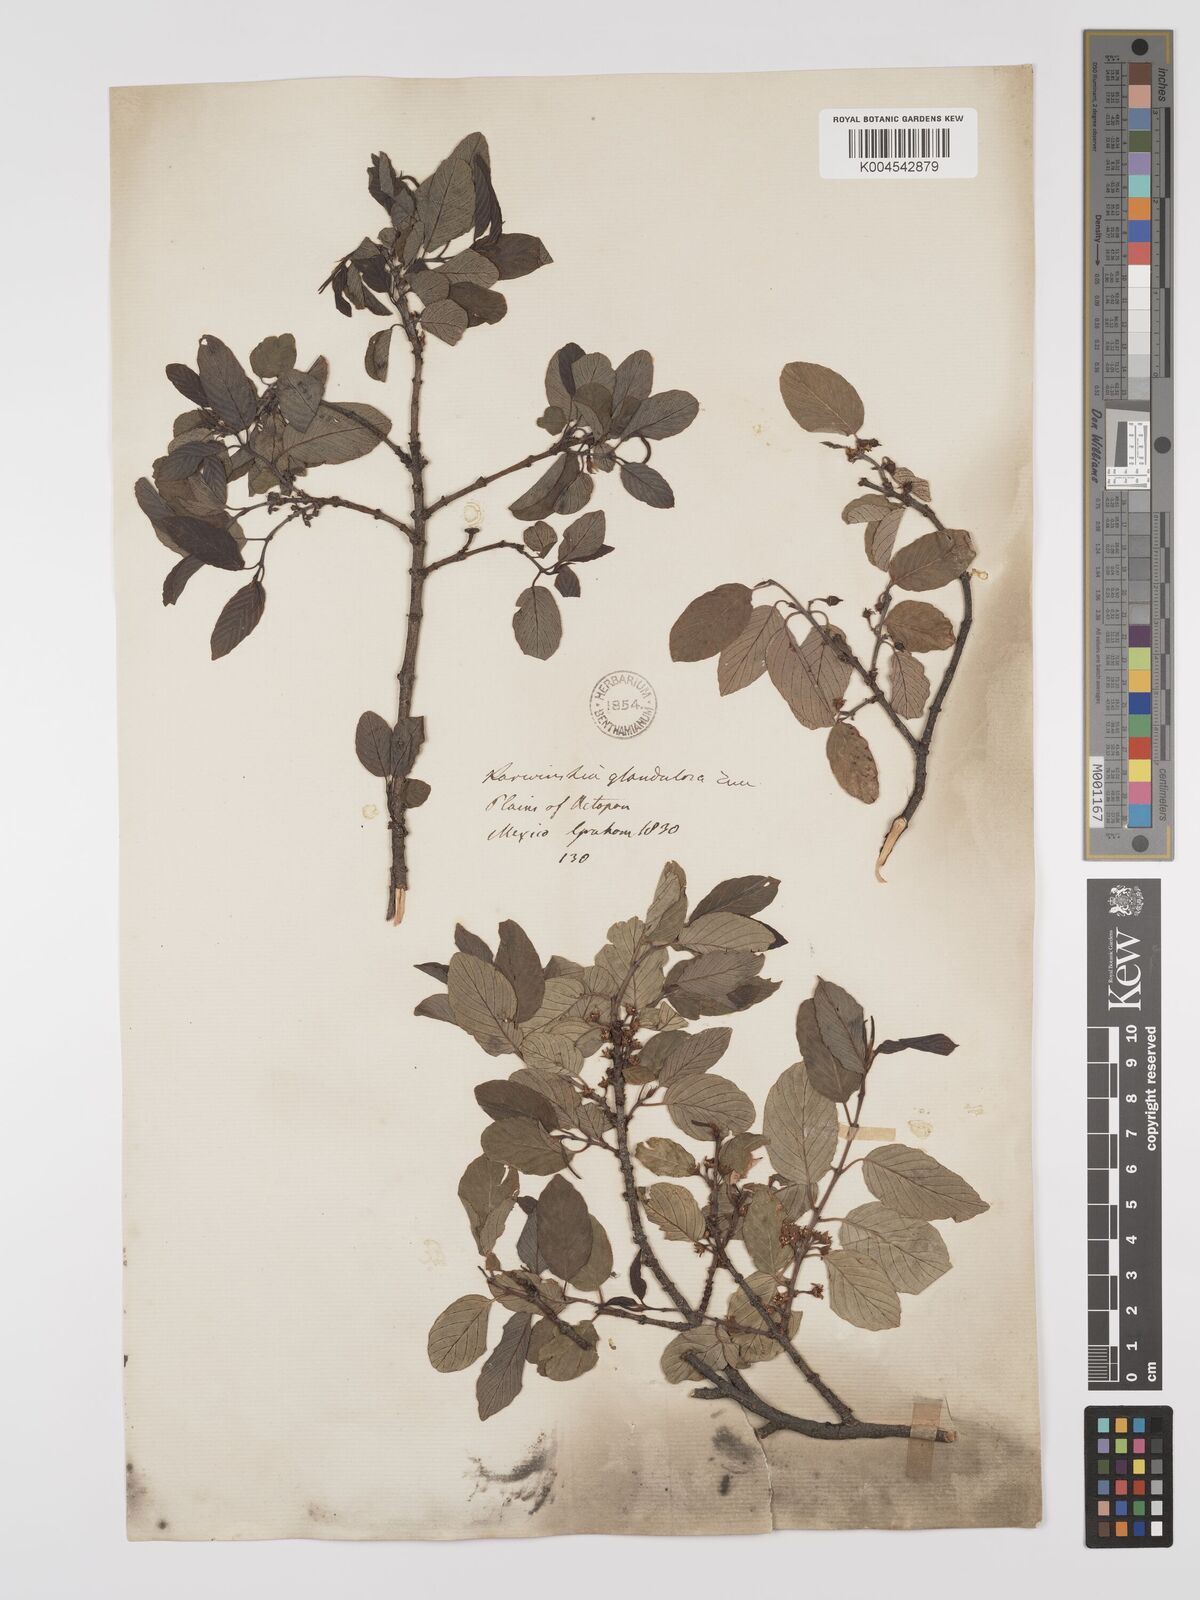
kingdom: Plantae
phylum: Tracheophyta
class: Magnoliopsida
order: Rosales
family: Rhamnaceae
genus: Karwinskia
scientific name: Karwinskia humboldtiana
